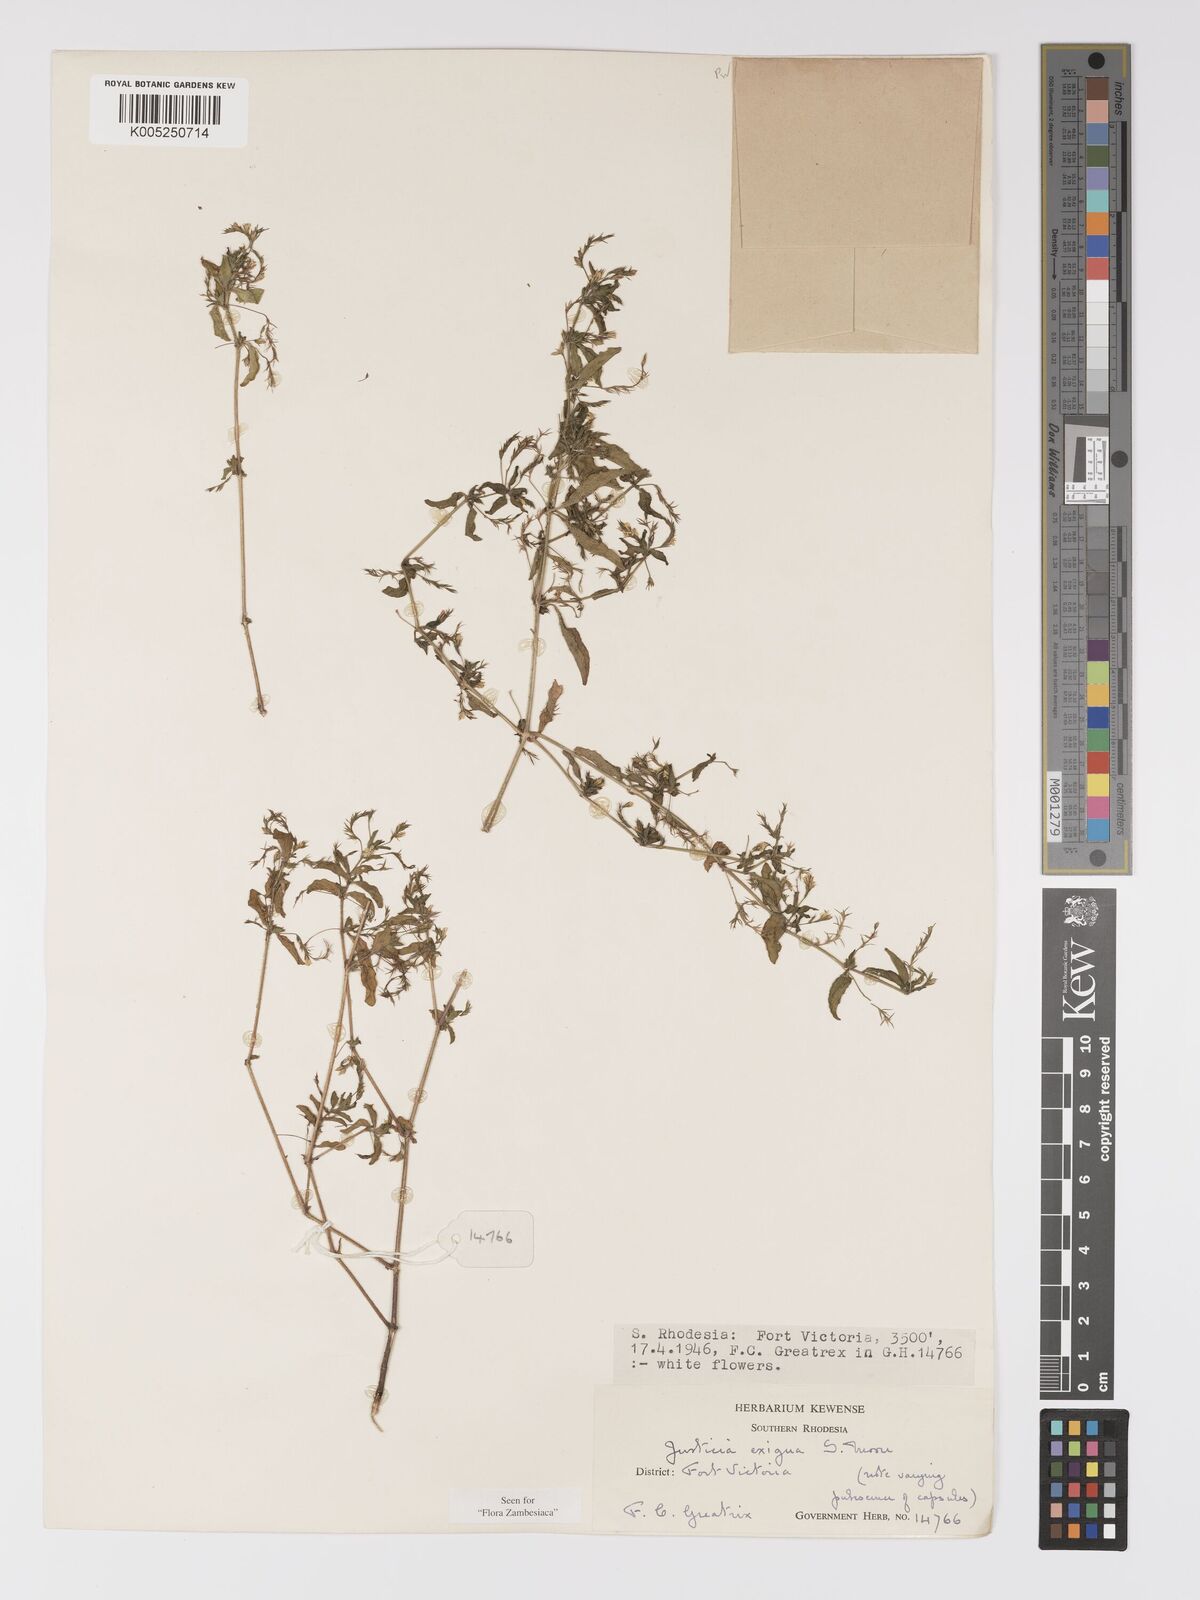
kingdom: Plantae
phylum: Tracheophyta
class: Magnoliopsida
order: Lamiales
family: Acanthaceae
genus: Justicia
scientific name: Justicia exigua
